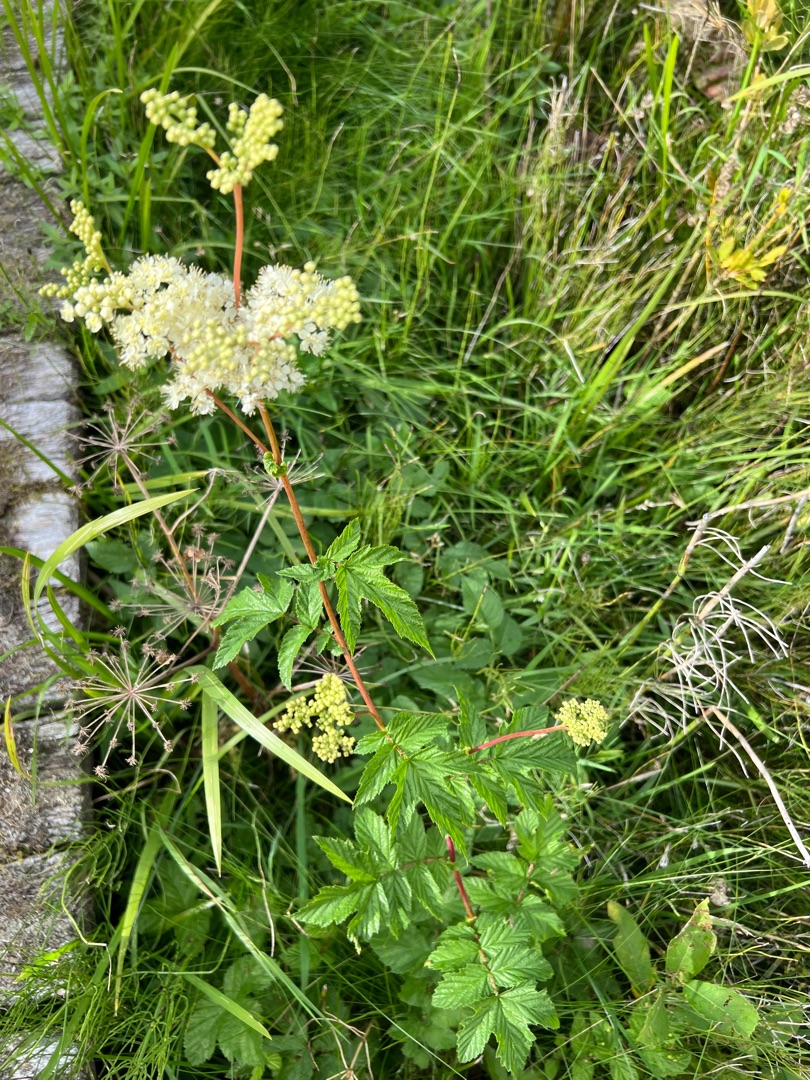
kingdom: Plantae
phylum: Tracheophyta
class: Magnoliopsida
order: Rosales
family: Rosaceae
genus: Filipendula
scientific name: Filipendula ulmaria
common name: Almindelig mjødurt
